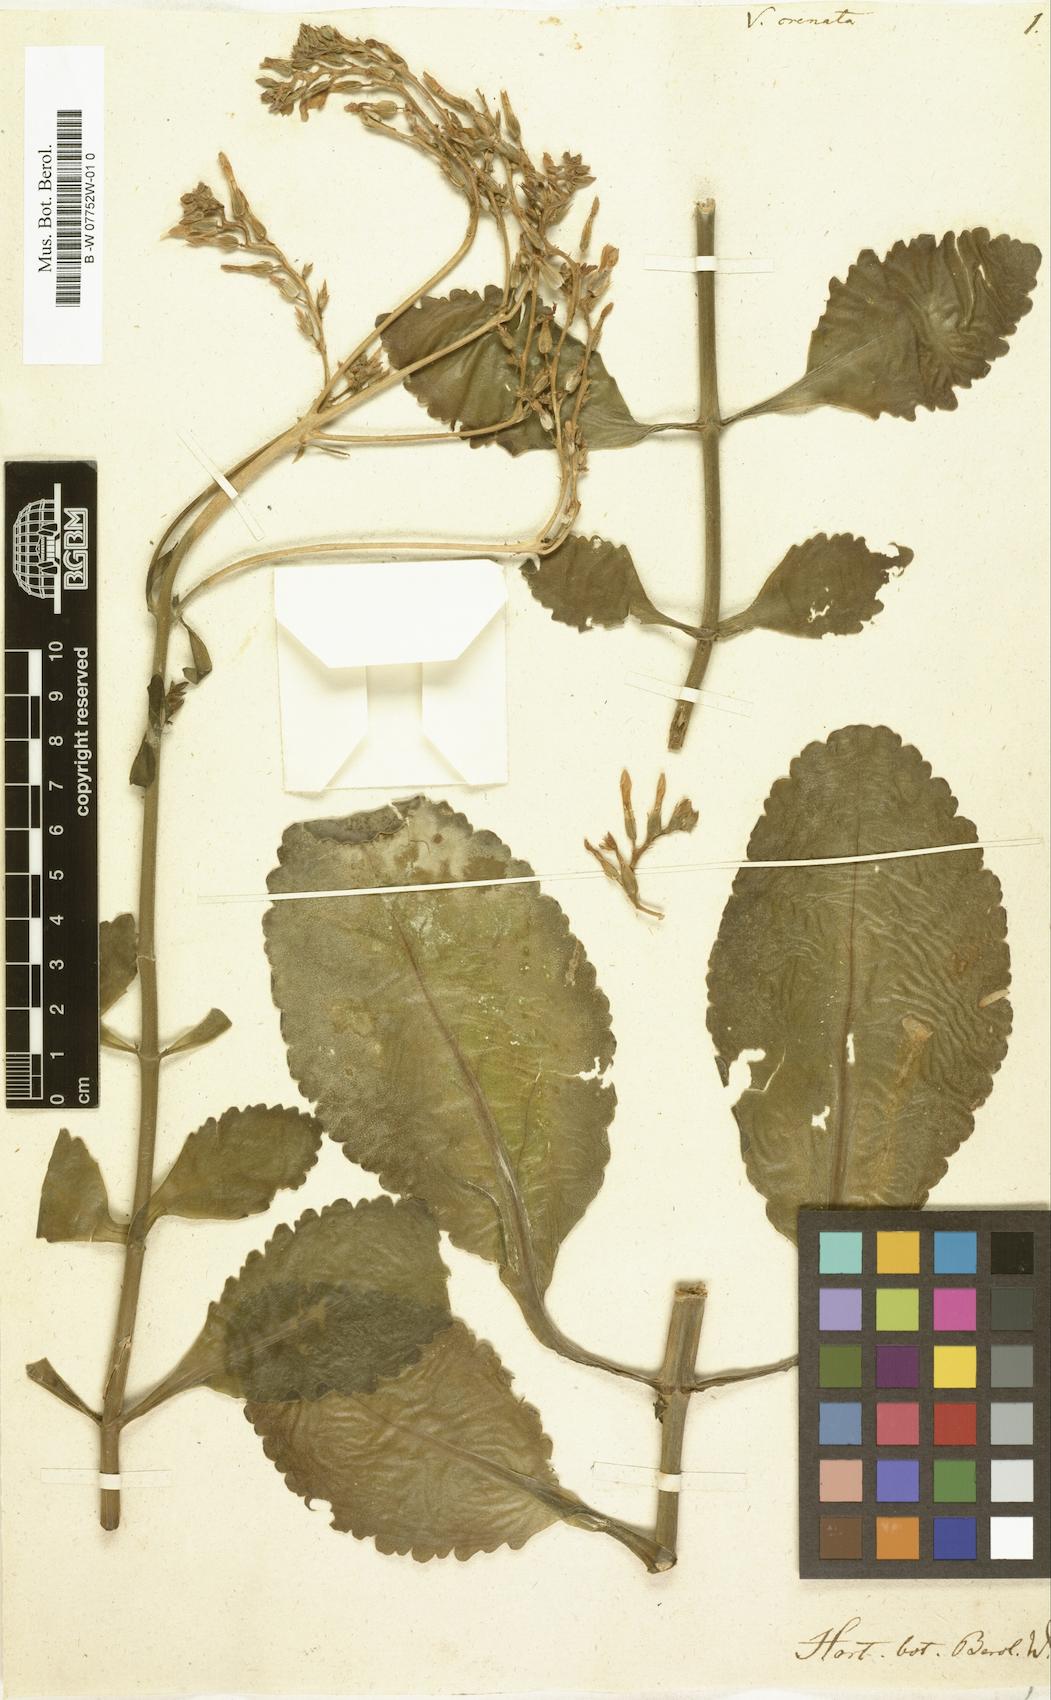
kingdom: Plantae
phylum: Tracheophyta
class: Magnoliopsida
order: Saxifragales
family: Crassulaceae
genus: Kalanchoe
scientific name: Kalanchoe crenata
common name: Neverdie
